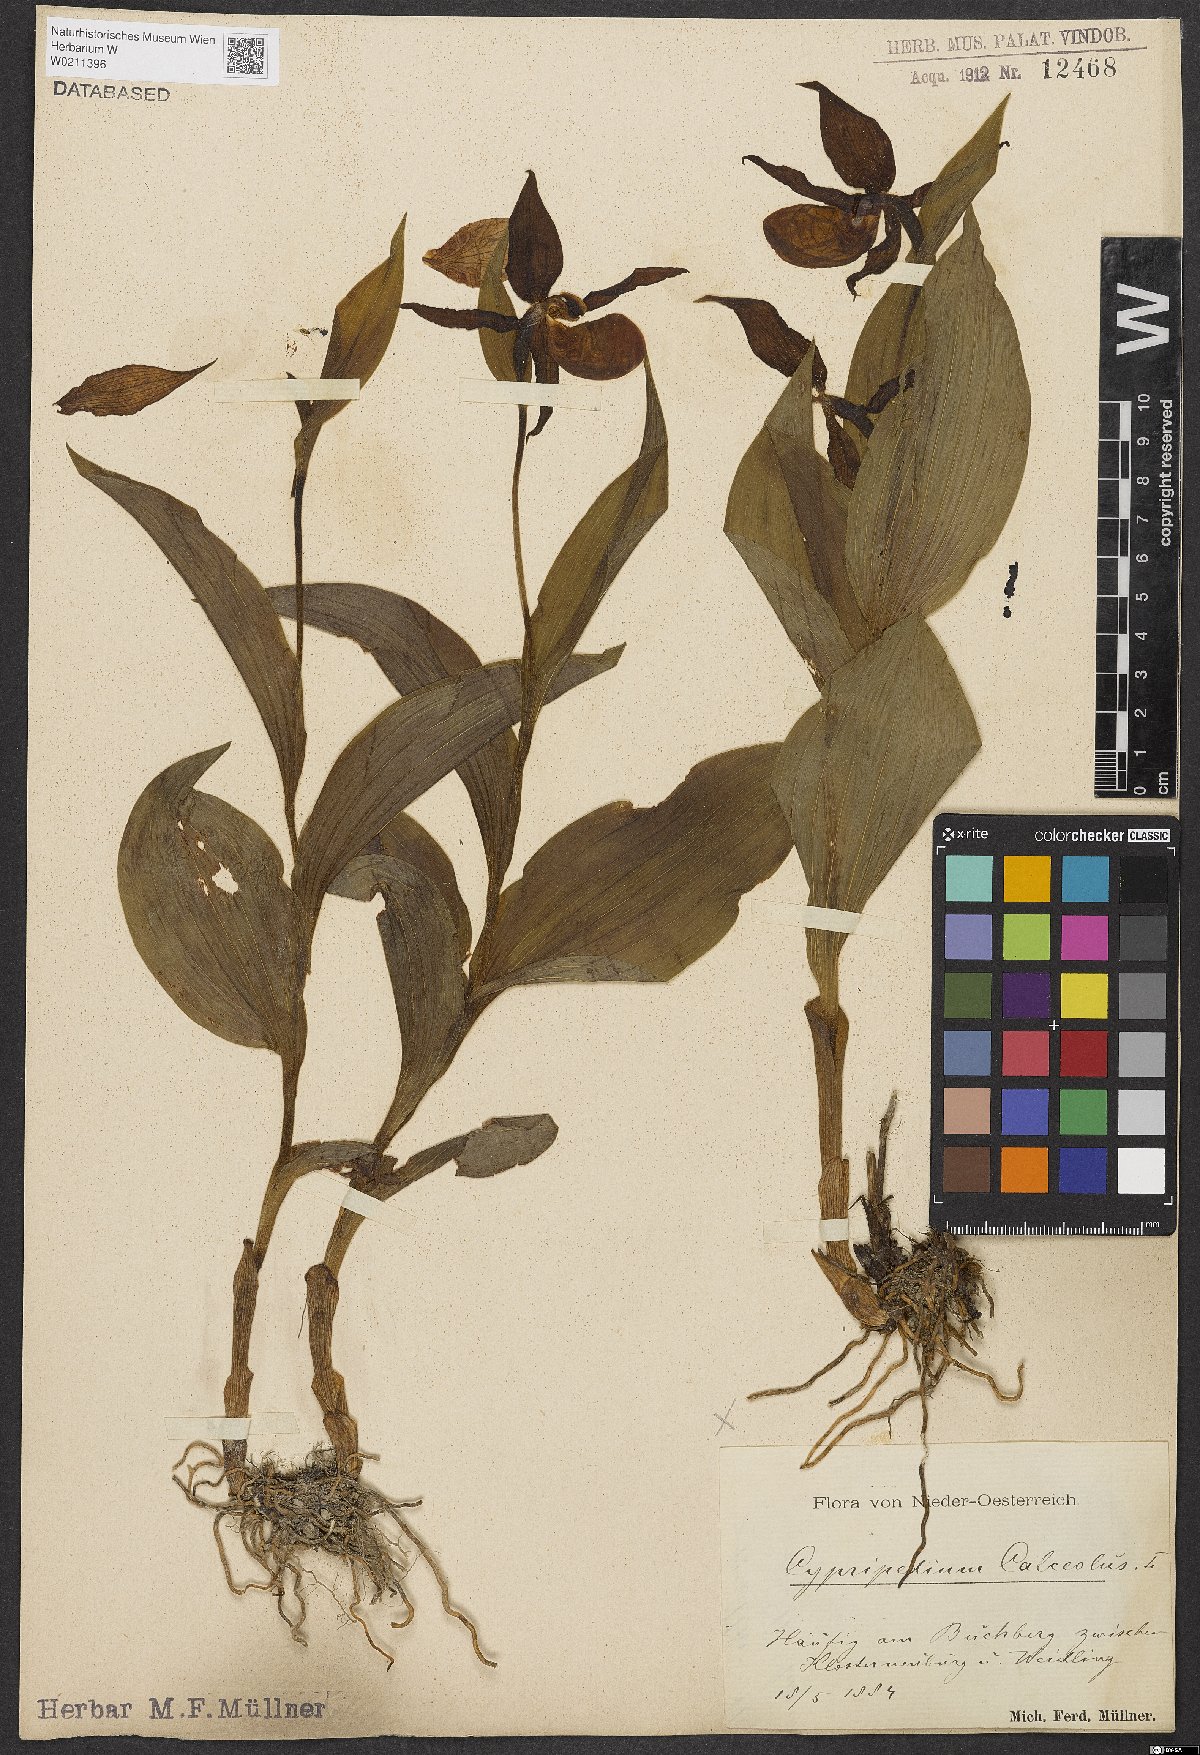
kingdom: Plantae
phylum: Tracheophyta
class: Liliopsida
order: Asparagales
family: Orchidaceae
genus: Cypripedium
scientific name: Cypripedium calceolus
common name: Lady's-slipper
